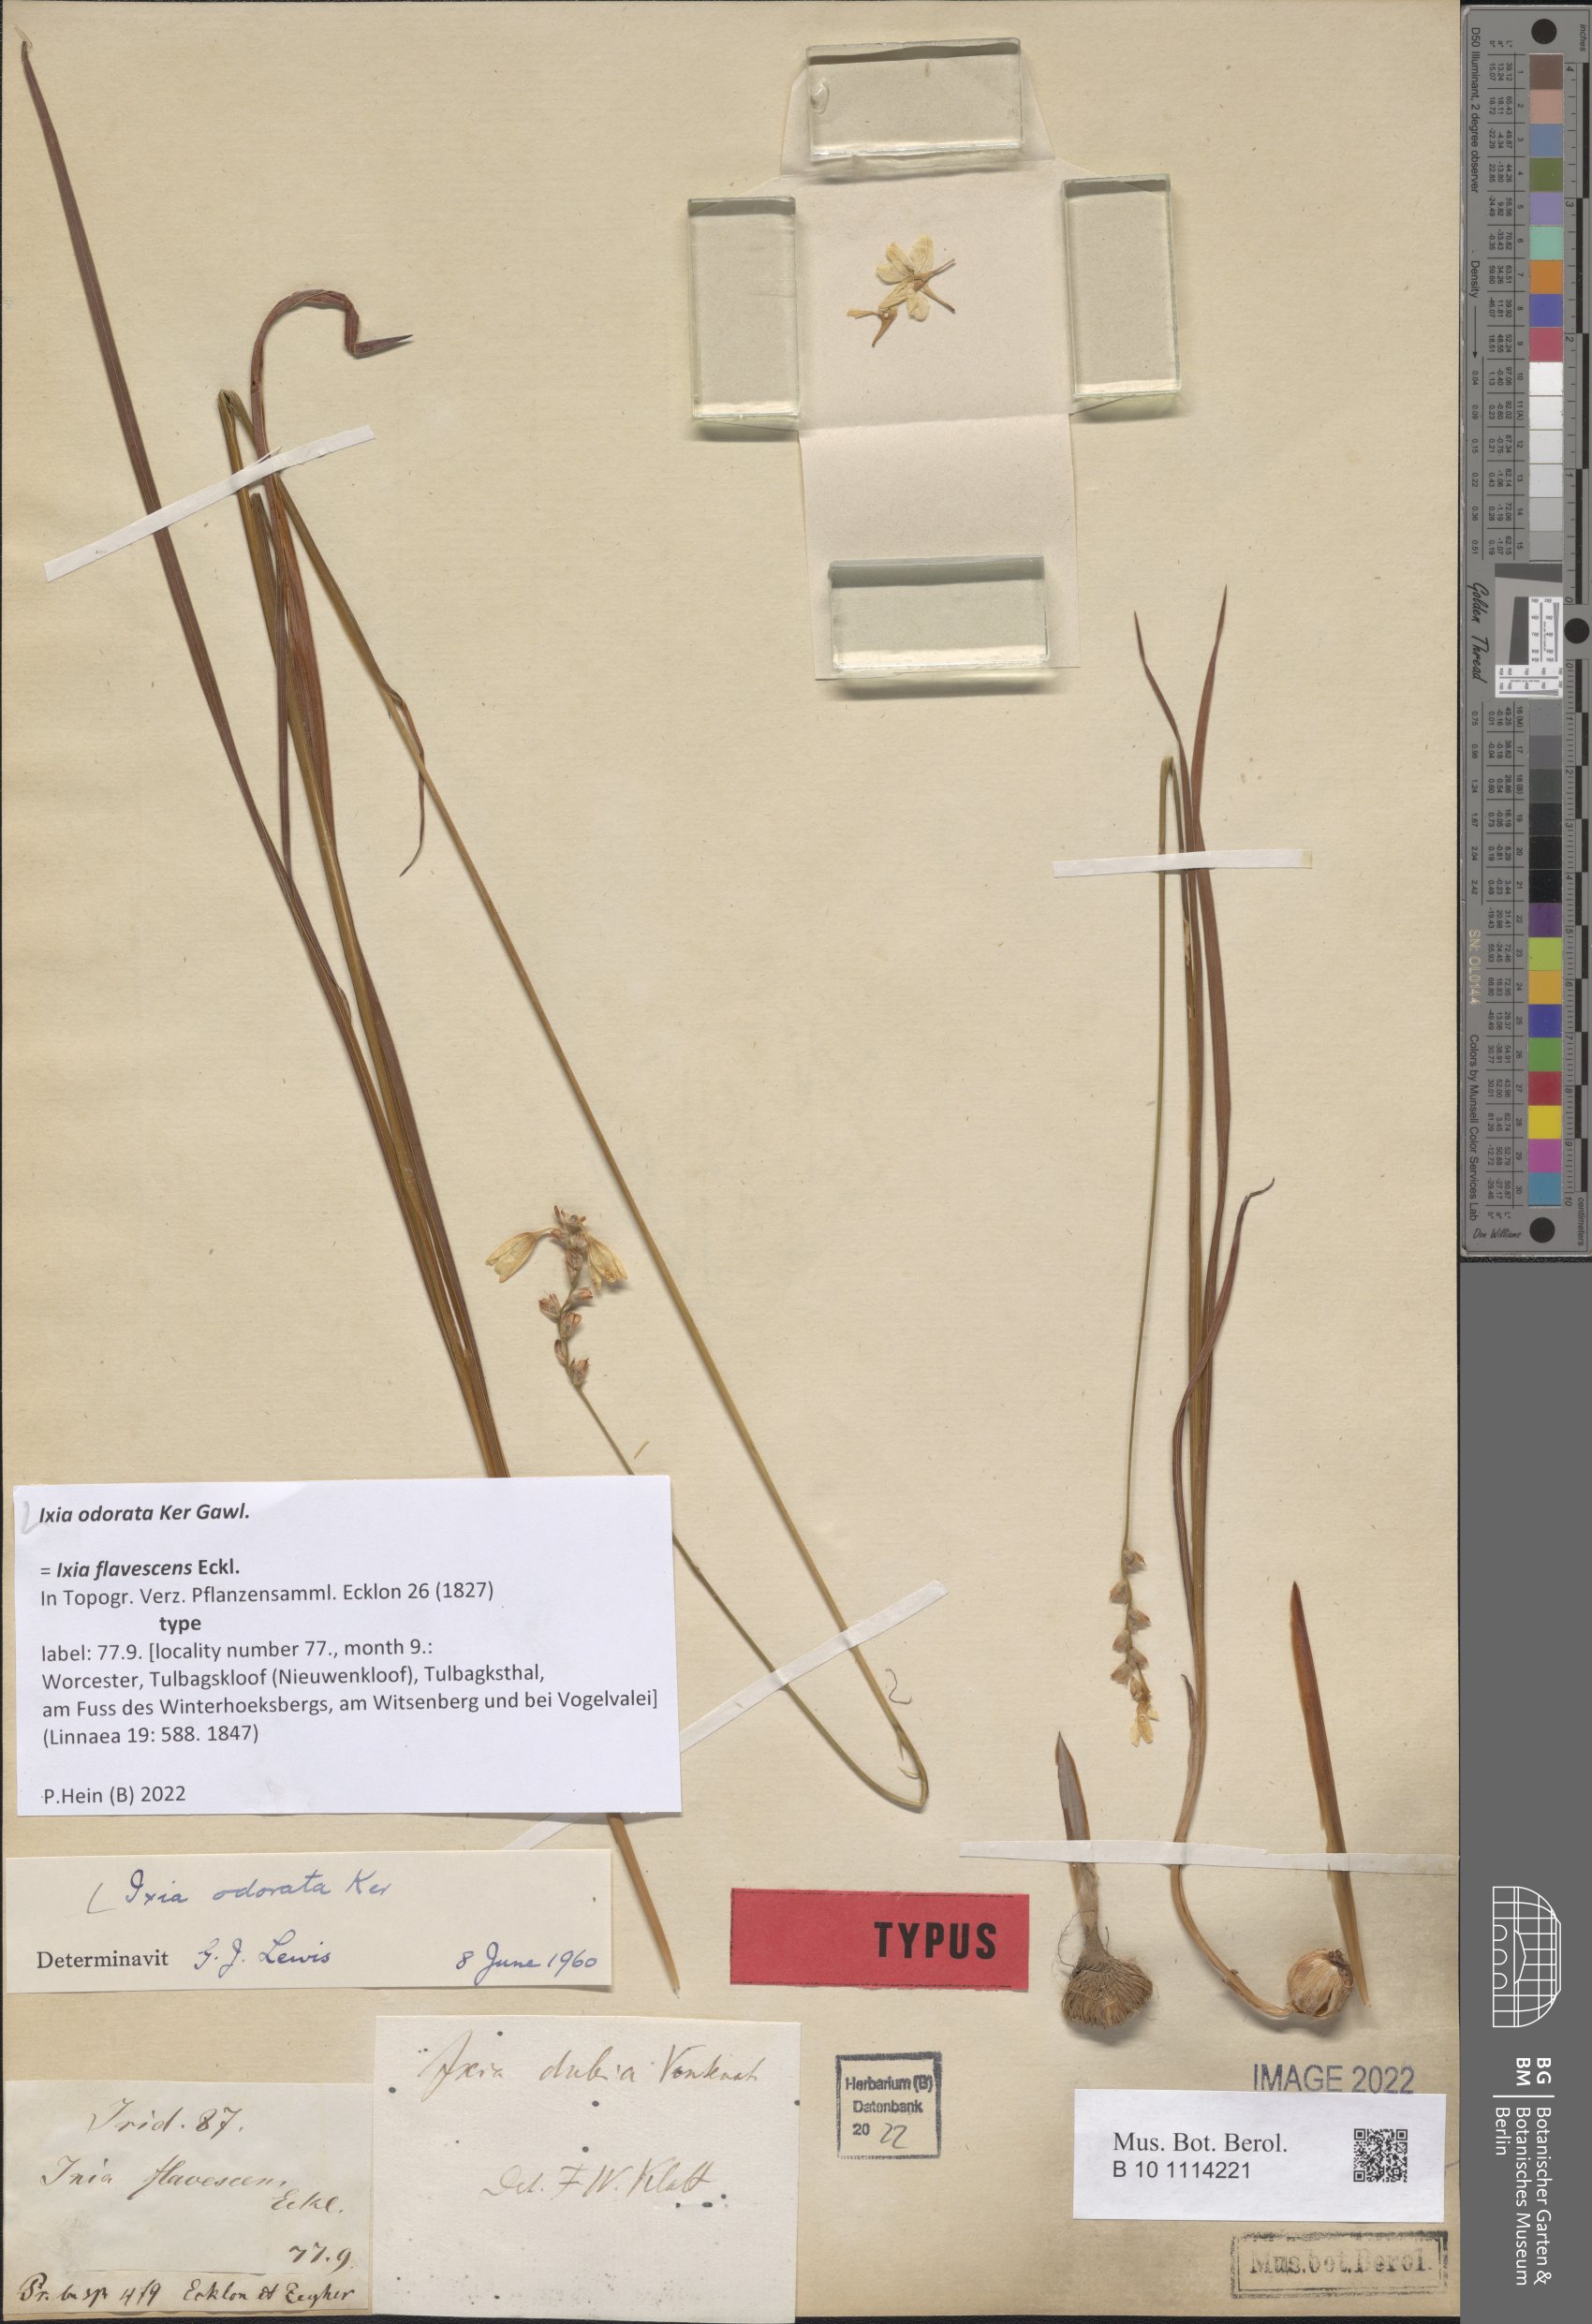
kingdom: Plantae
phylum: Tracheophyta
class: Liliopsida
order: Asparagales
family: Iridaceae
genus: Ixia
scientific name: Ixia odorata
